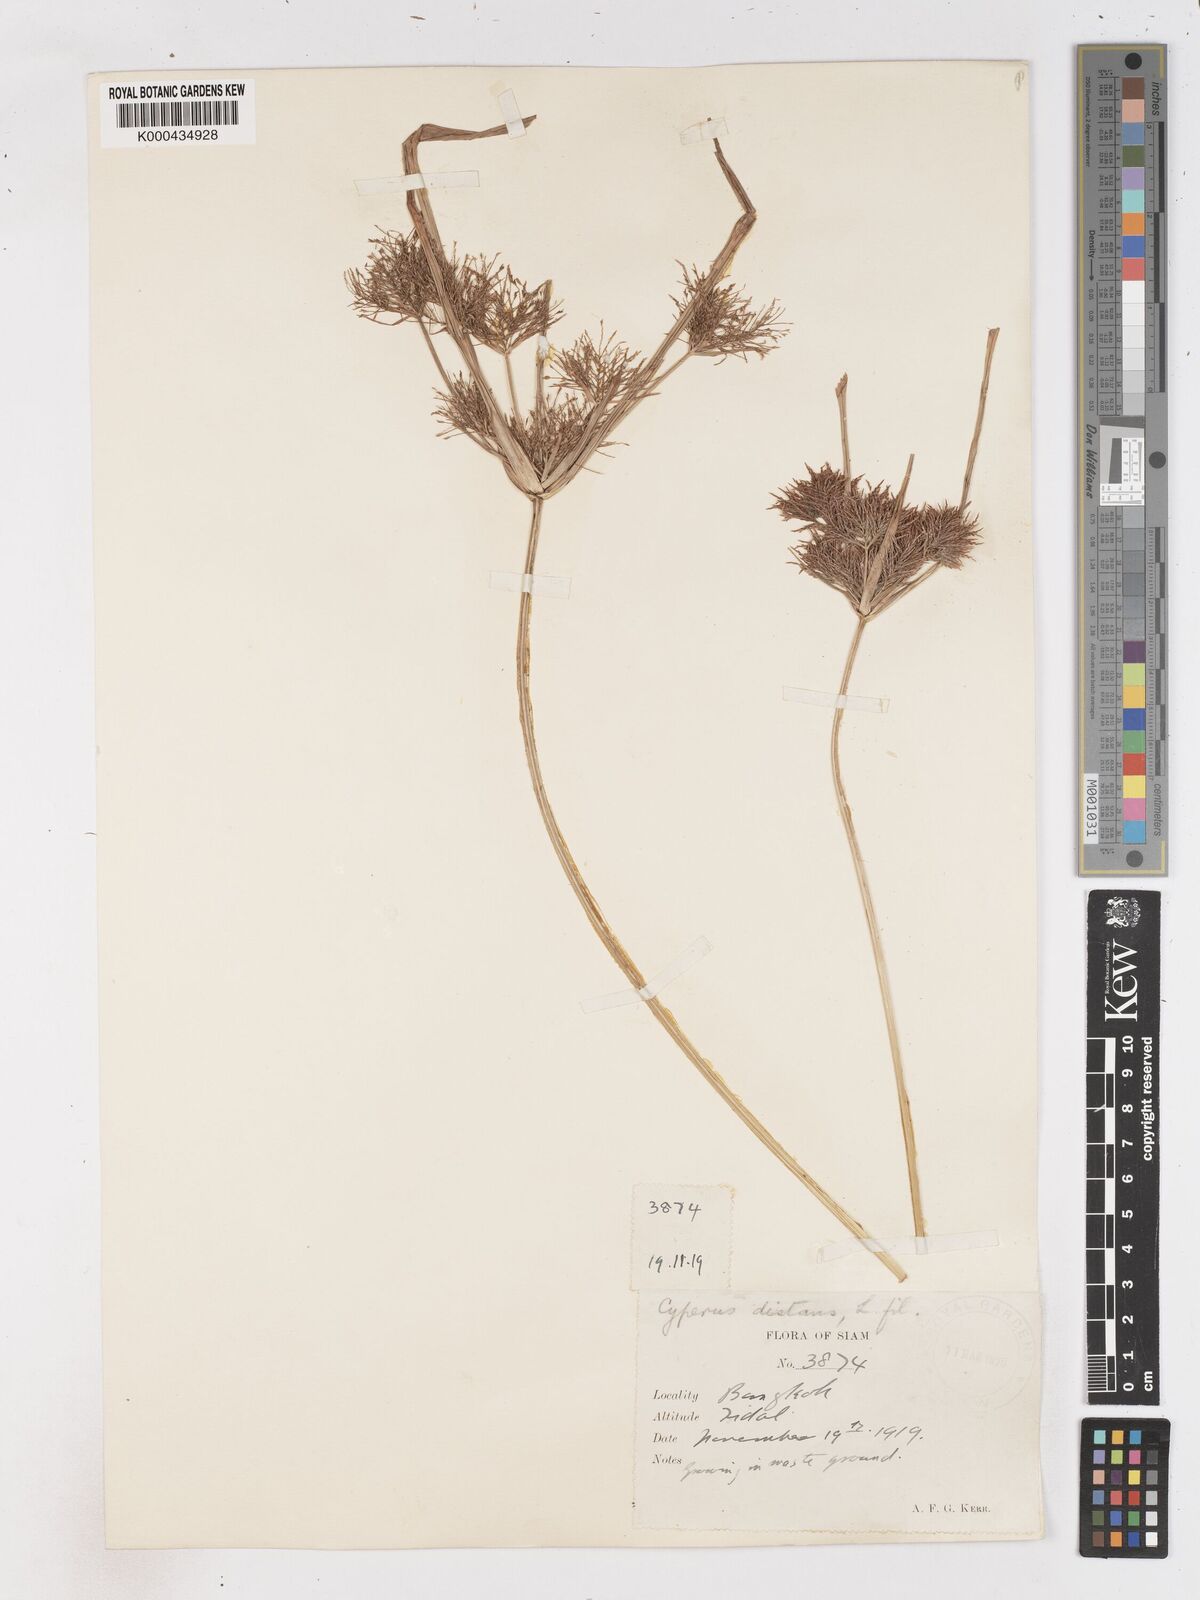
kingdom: Plantae
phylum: Tracheophyta
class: Liliopsida
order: Poales
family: Cyperaceae
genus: Cyperus
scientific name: Cyperus distans
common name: Slender cyperus
